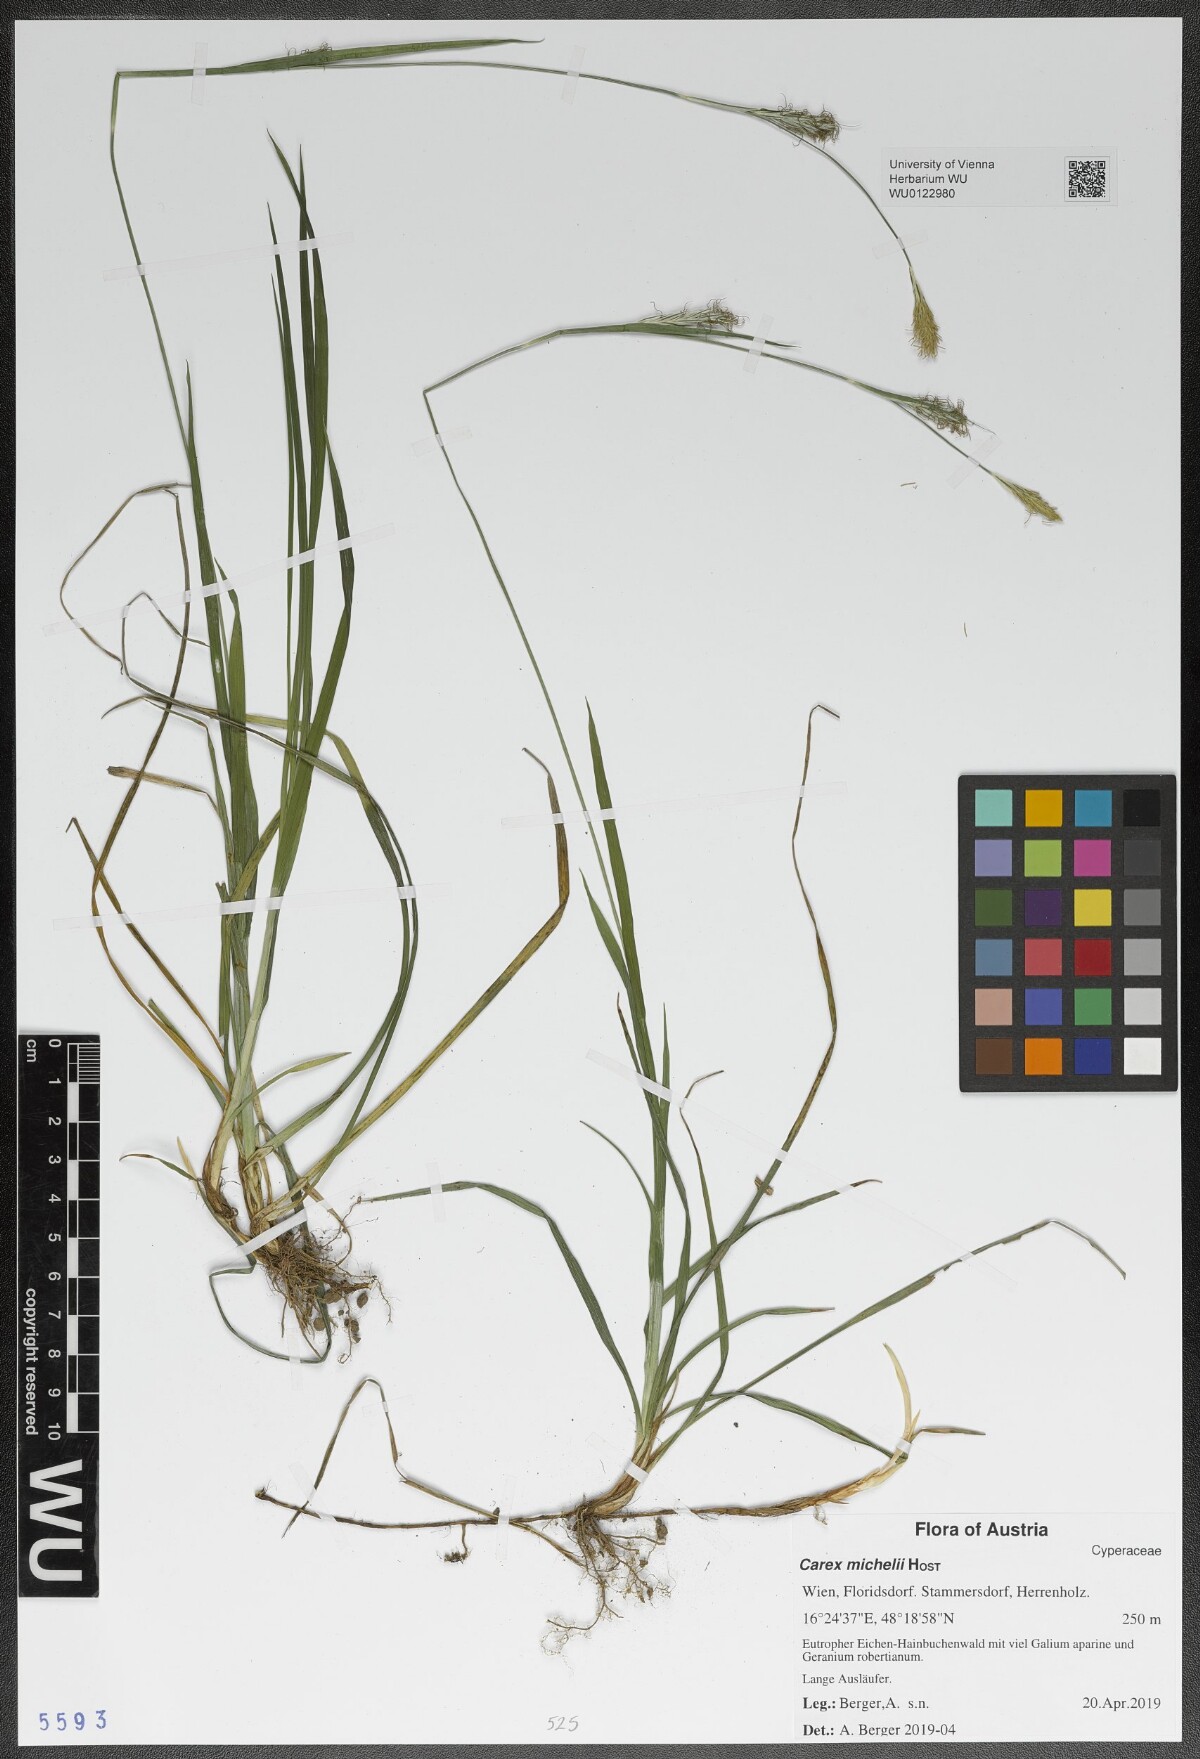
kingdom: Plantae
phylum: Tracheophyta
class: Liliopsida
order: Poales
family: Cyperaceae
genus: Carex
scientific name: Carex michelii
